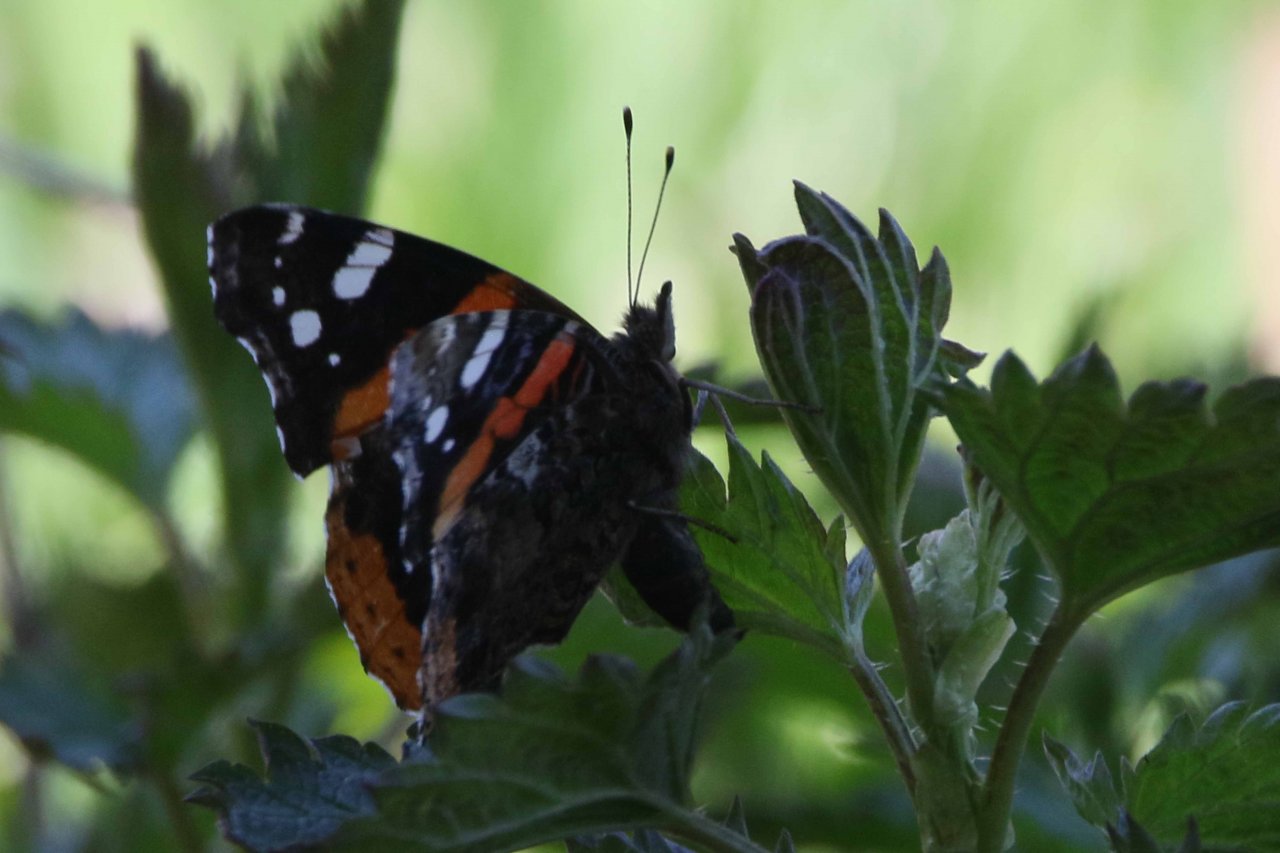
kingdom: Animalia
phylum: Arthropoda
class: Insecta
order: Lepidoptera
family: Nymphalidae
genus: Vanessa
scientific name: Vanessa atalanta
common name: Red Admiral
